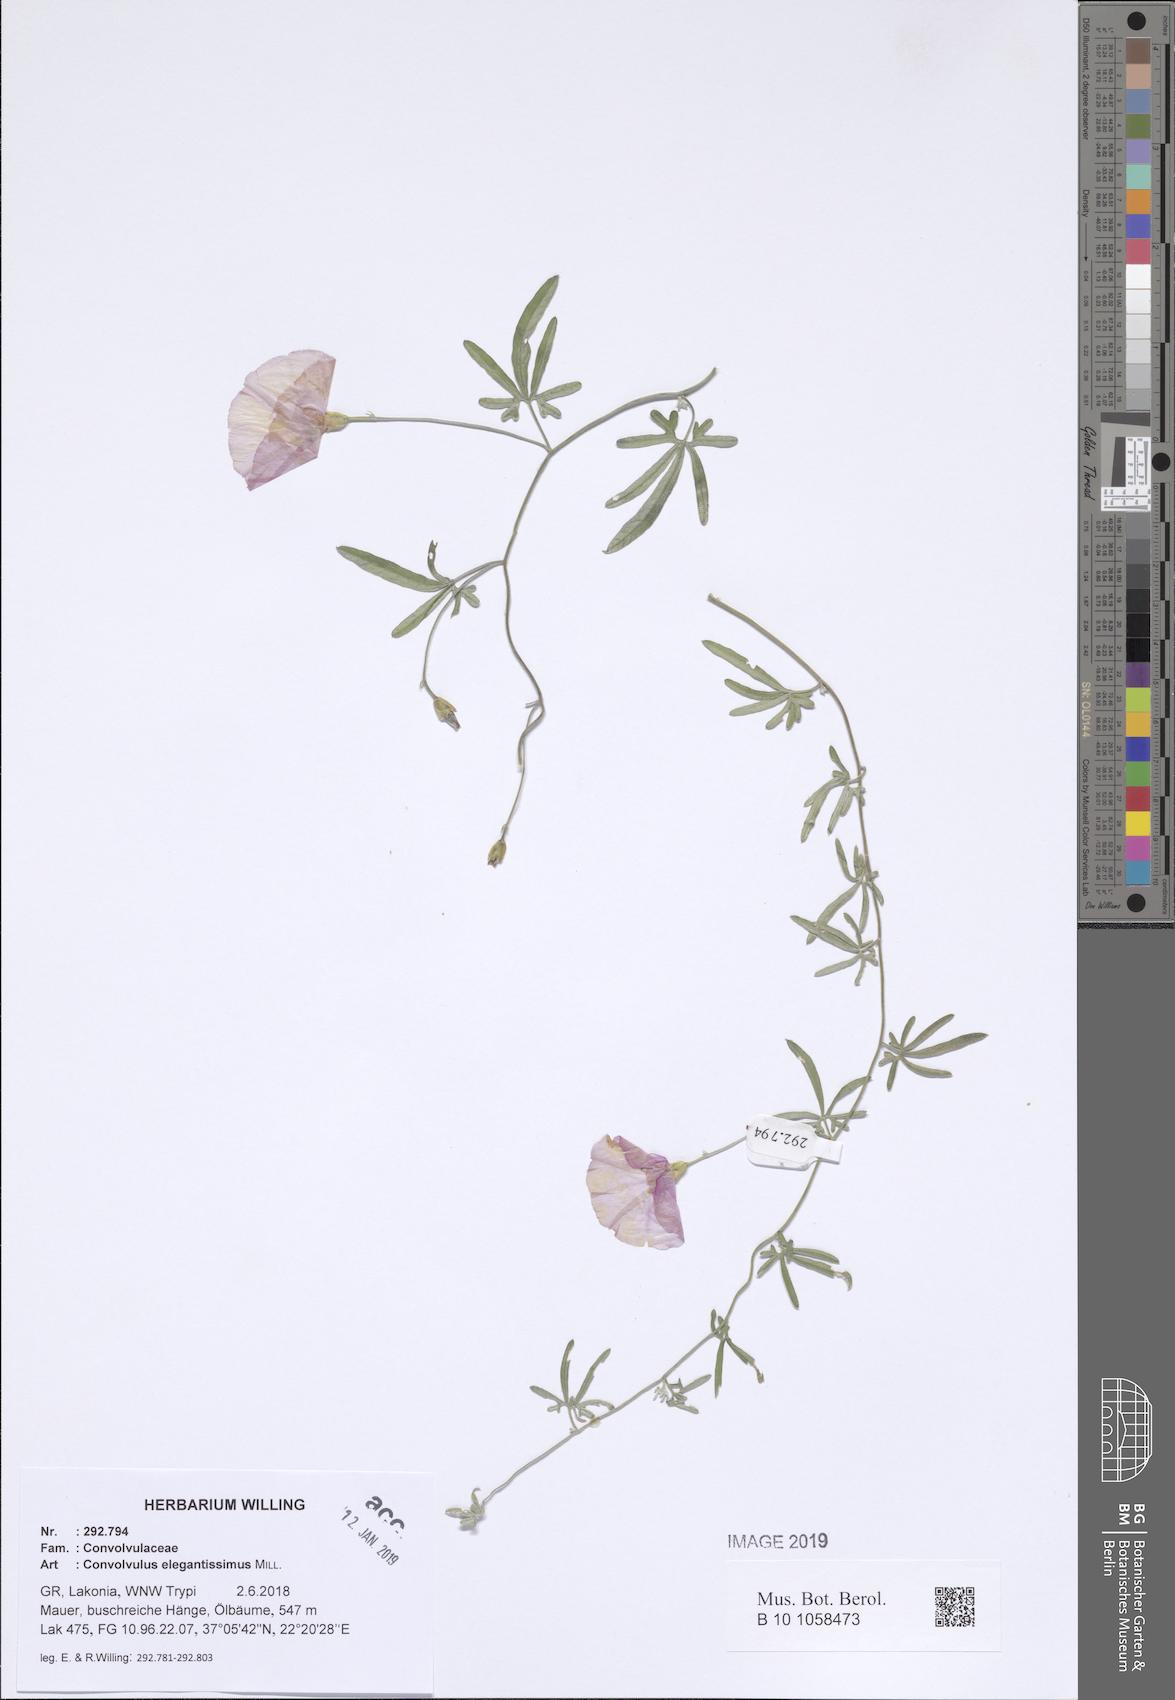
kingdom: Plantae
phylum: Tracheophyta
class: Magnoliopsida
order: Solanales
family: Convolvulaceae
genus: Convolvulus
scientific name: Convolvulus elegantissimus
